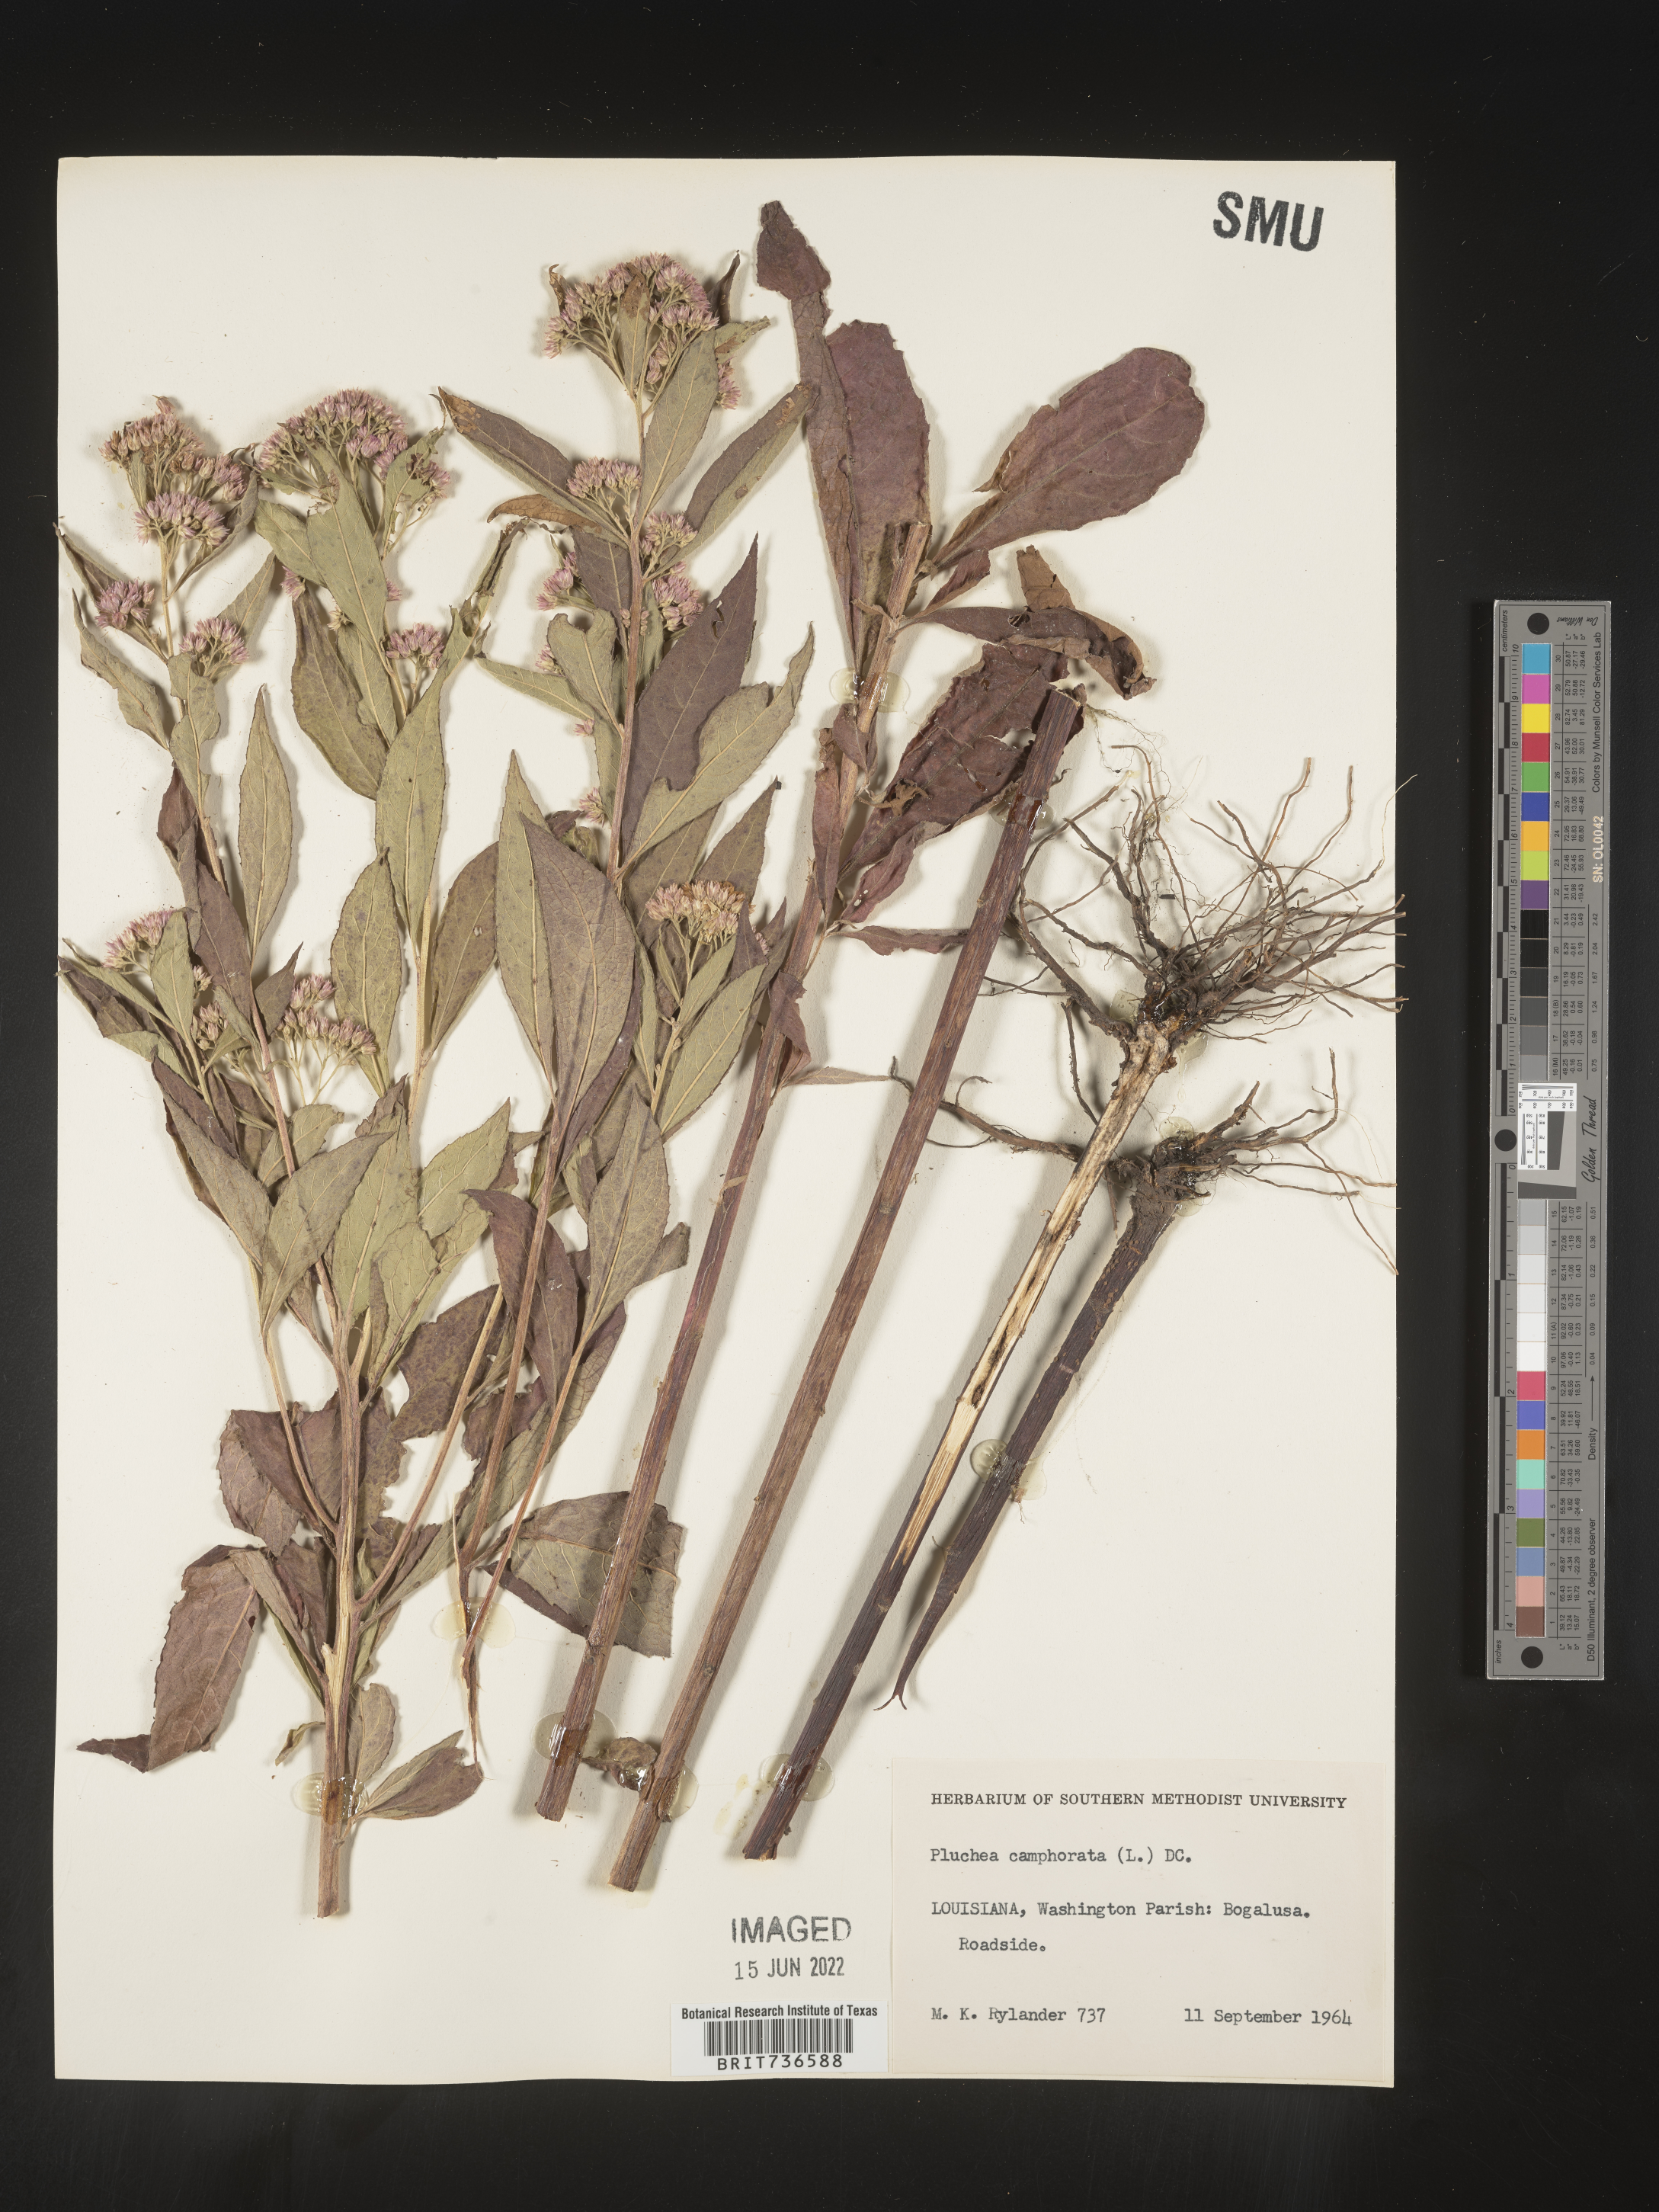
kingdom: Plantae
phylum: Tracheophyta
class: Magnoliopsida
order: Asterales
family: Asteraceae
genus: Pluchea
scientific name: Pluchea camphorata
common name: Camphor pluchea
